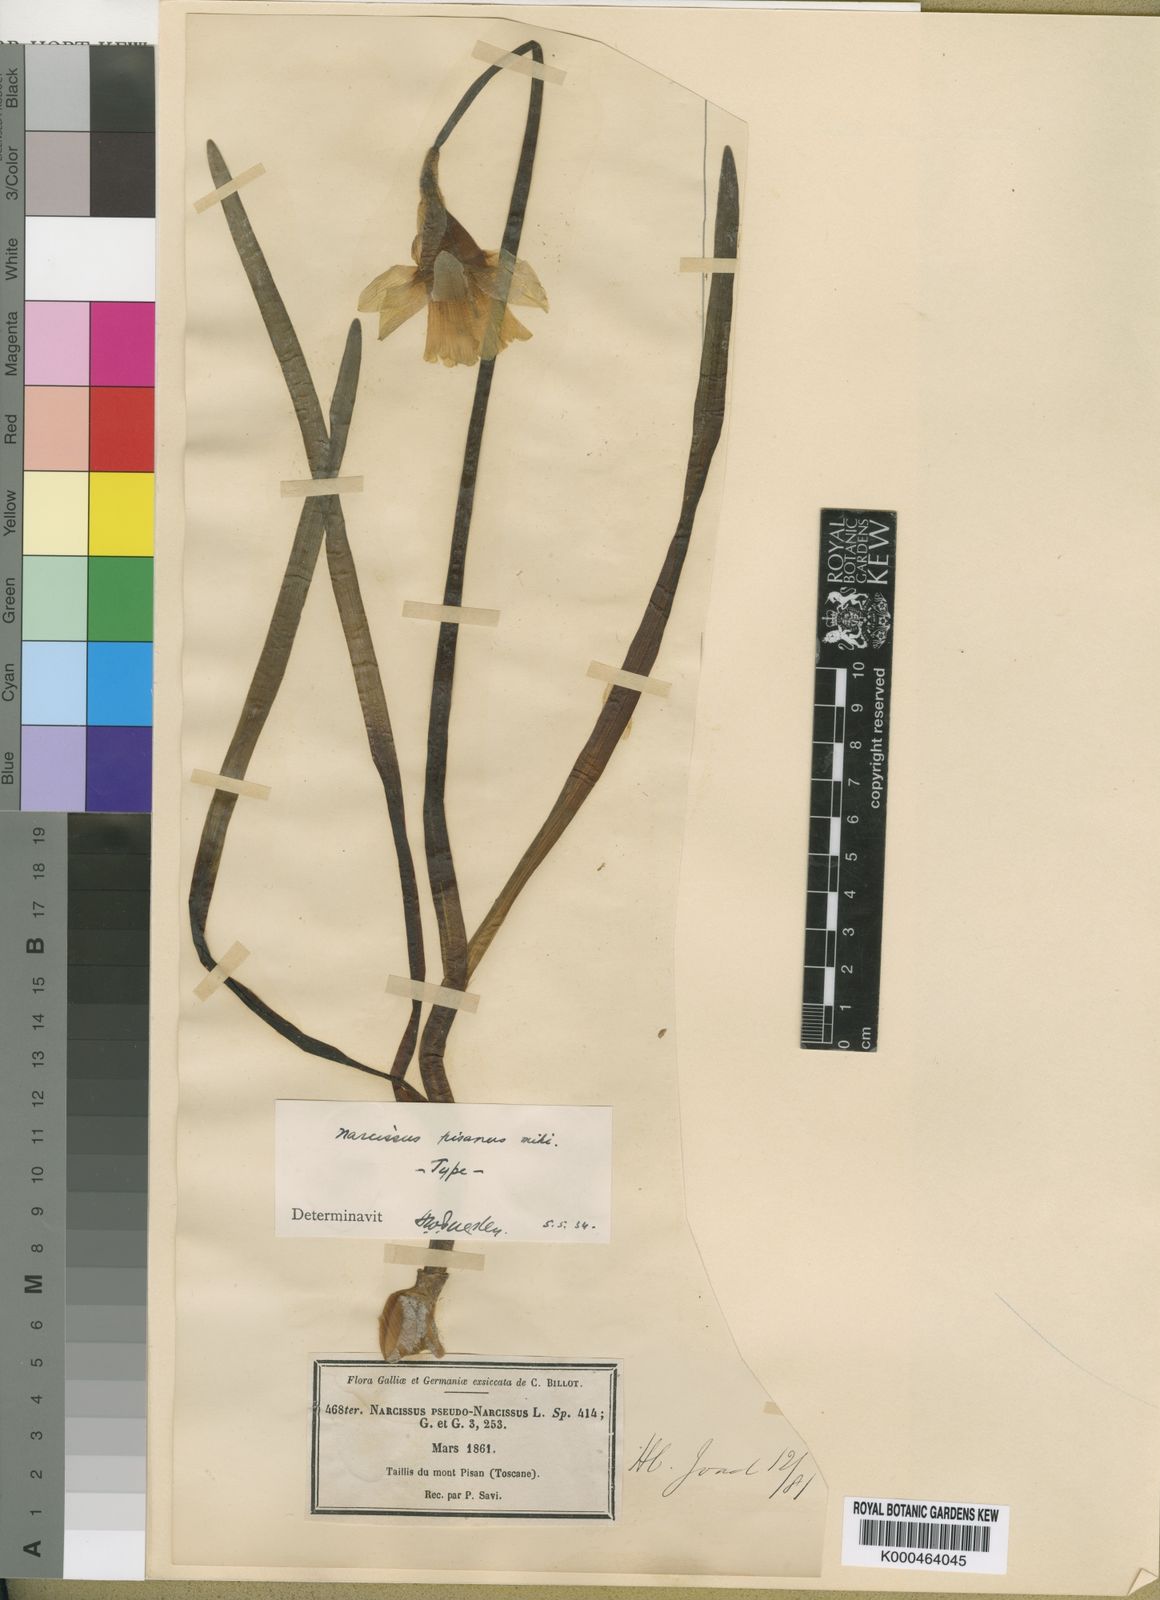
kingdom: Plantae
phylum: Tracheophyta
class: Liliopsida
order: Asparagales
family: Amaryllidaceae
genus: Narcissus
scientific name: Narcissus pseudonarcissus
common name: Daffodil
